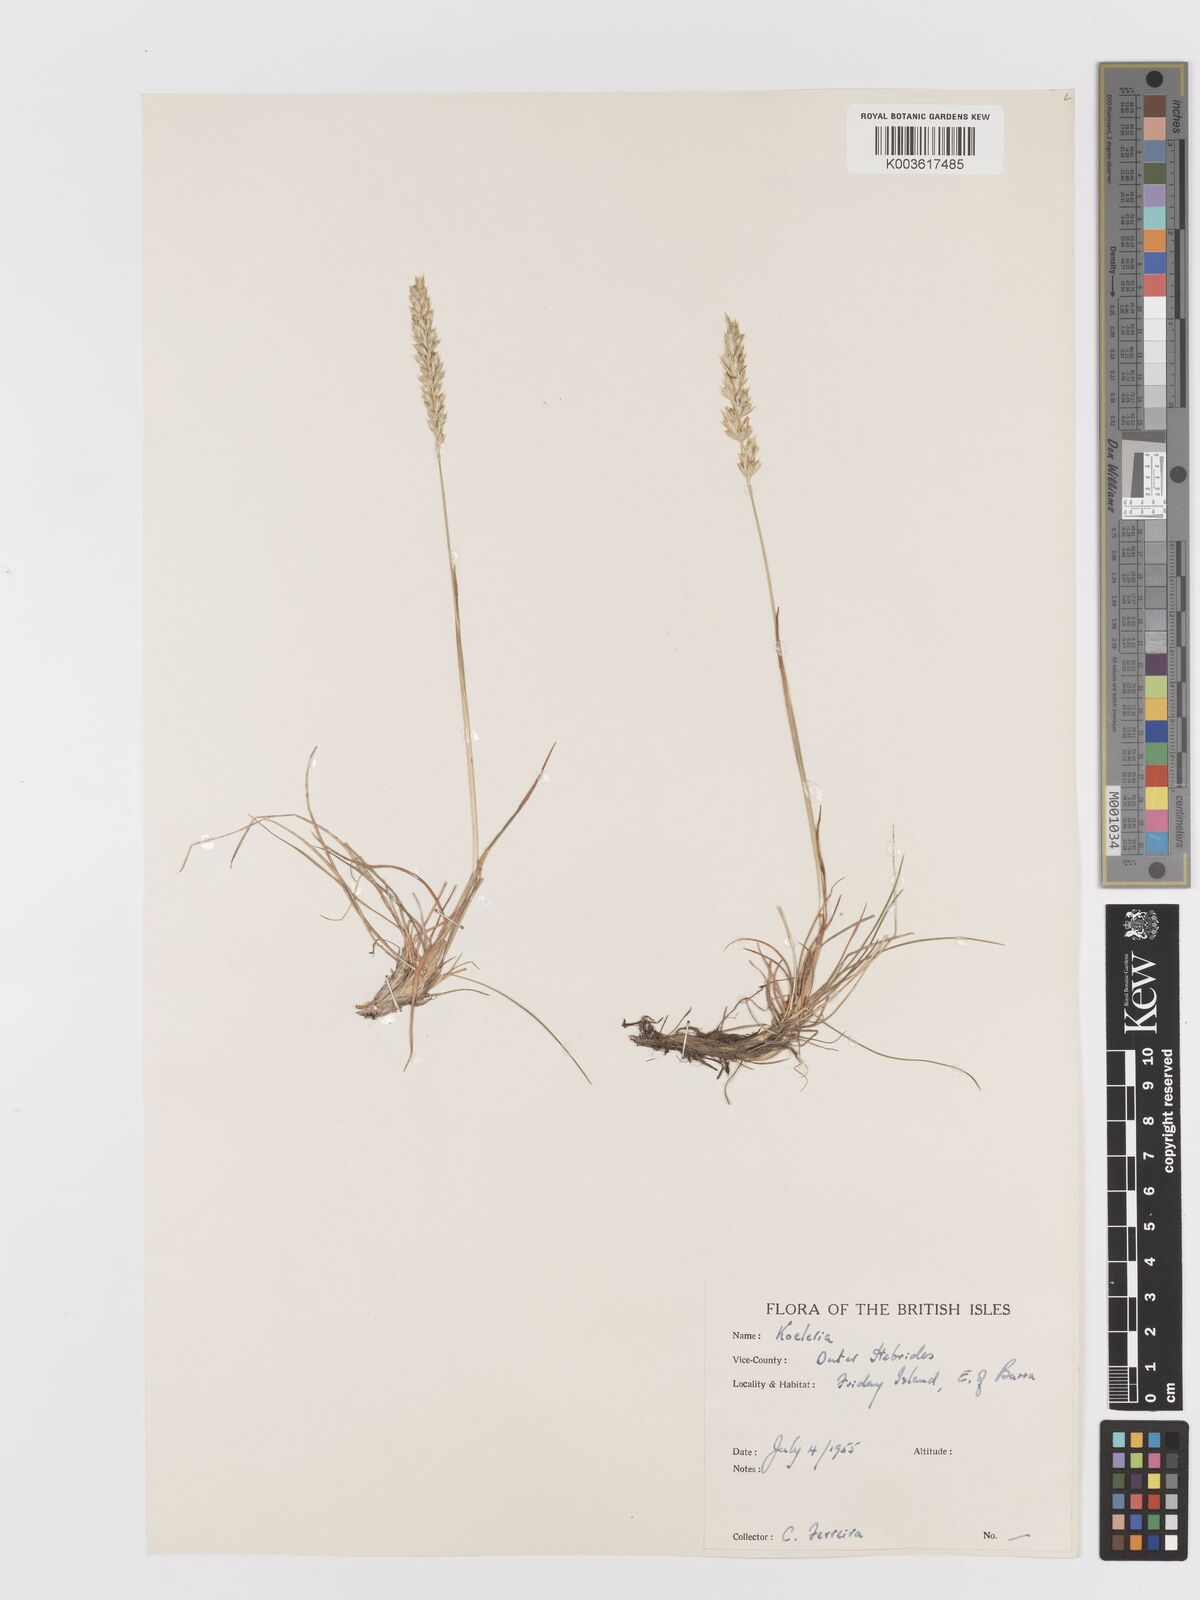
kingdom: Plantae
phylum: Tracheophyta
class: Liliopsida
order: Poales
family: Poaceae
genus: Koeleria
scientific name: Koeleria
